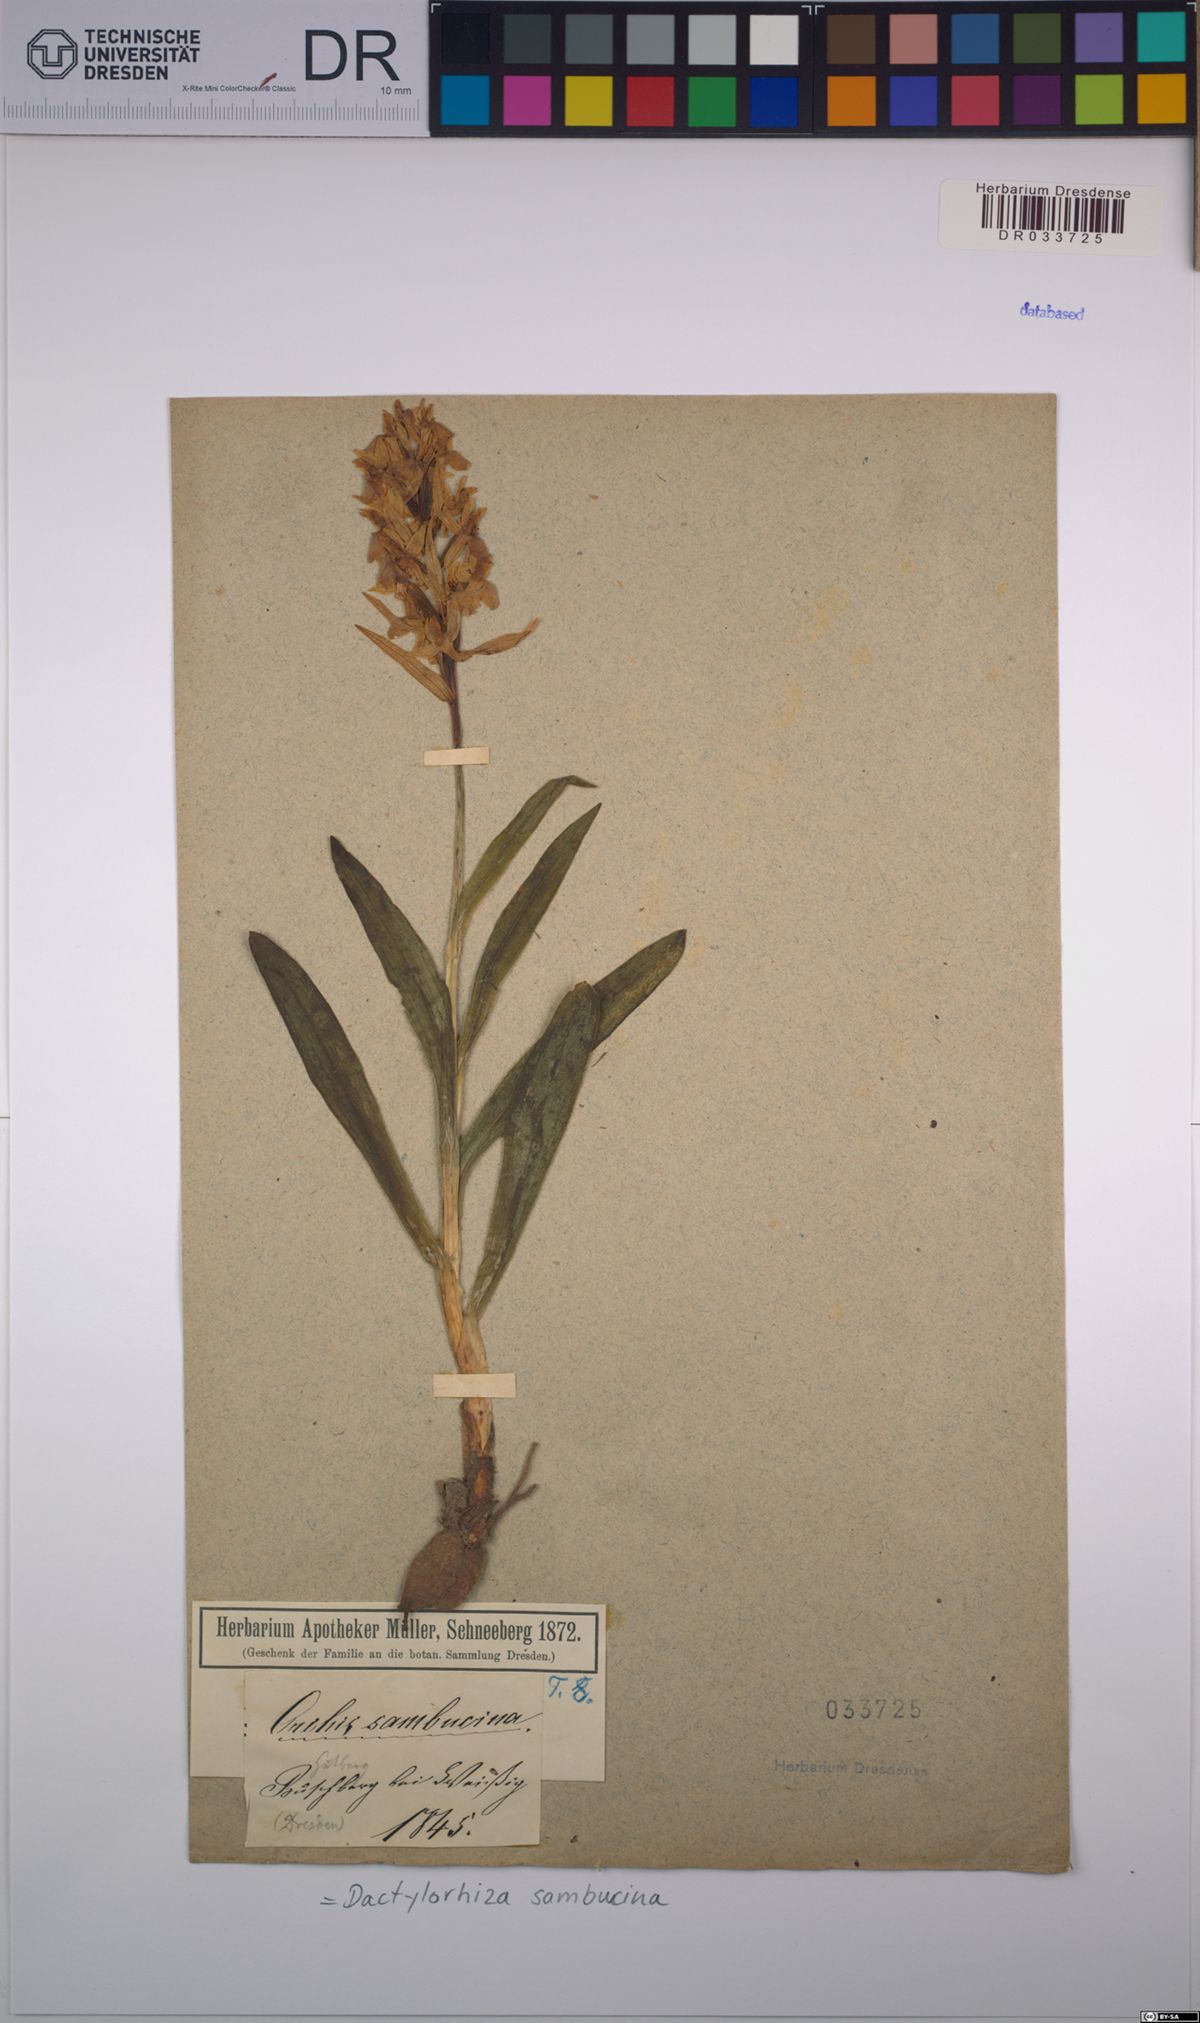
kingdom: Plantae
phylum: Tracheophyta
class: Liliopsida
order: Asparagales
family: Orchidaceae
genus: Dactylorhiza
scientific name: Dactylorhiza sambucina
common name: Elder-flowered orchid
